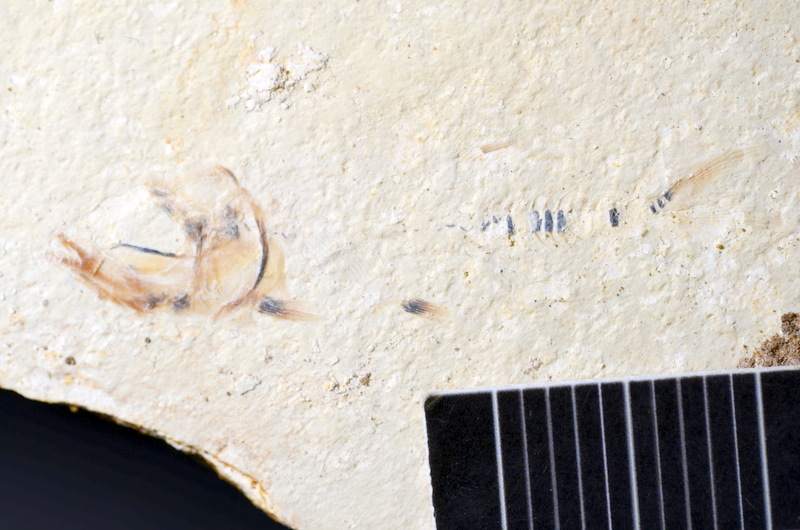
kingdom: Animalia
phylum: Chordata
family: Ascalaboidae
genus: Ebertichthys
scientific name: Ebertichthys ettlingensis
